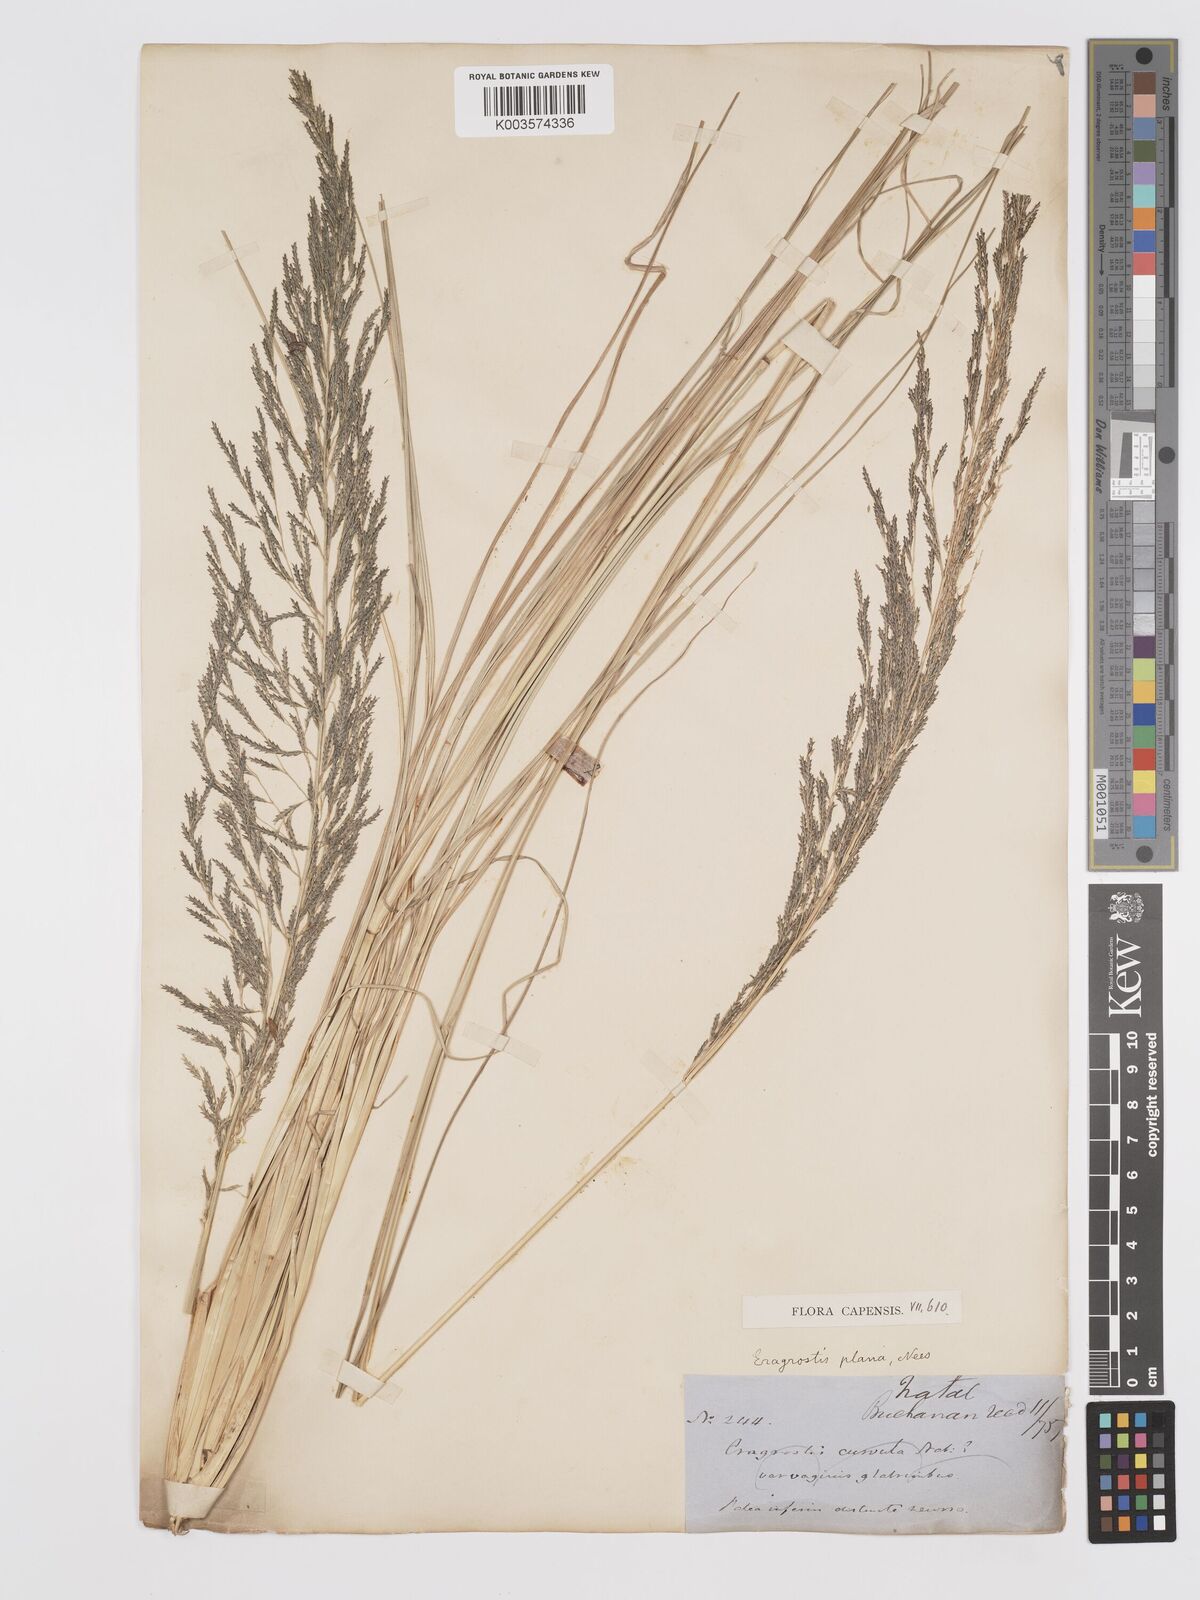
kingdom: Plantae
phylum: Tracheophyta
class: Liliopsida
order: Poales
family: Poaceae
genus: Eragrostis
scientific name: Eragrostis plana
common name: South african lovegrass
